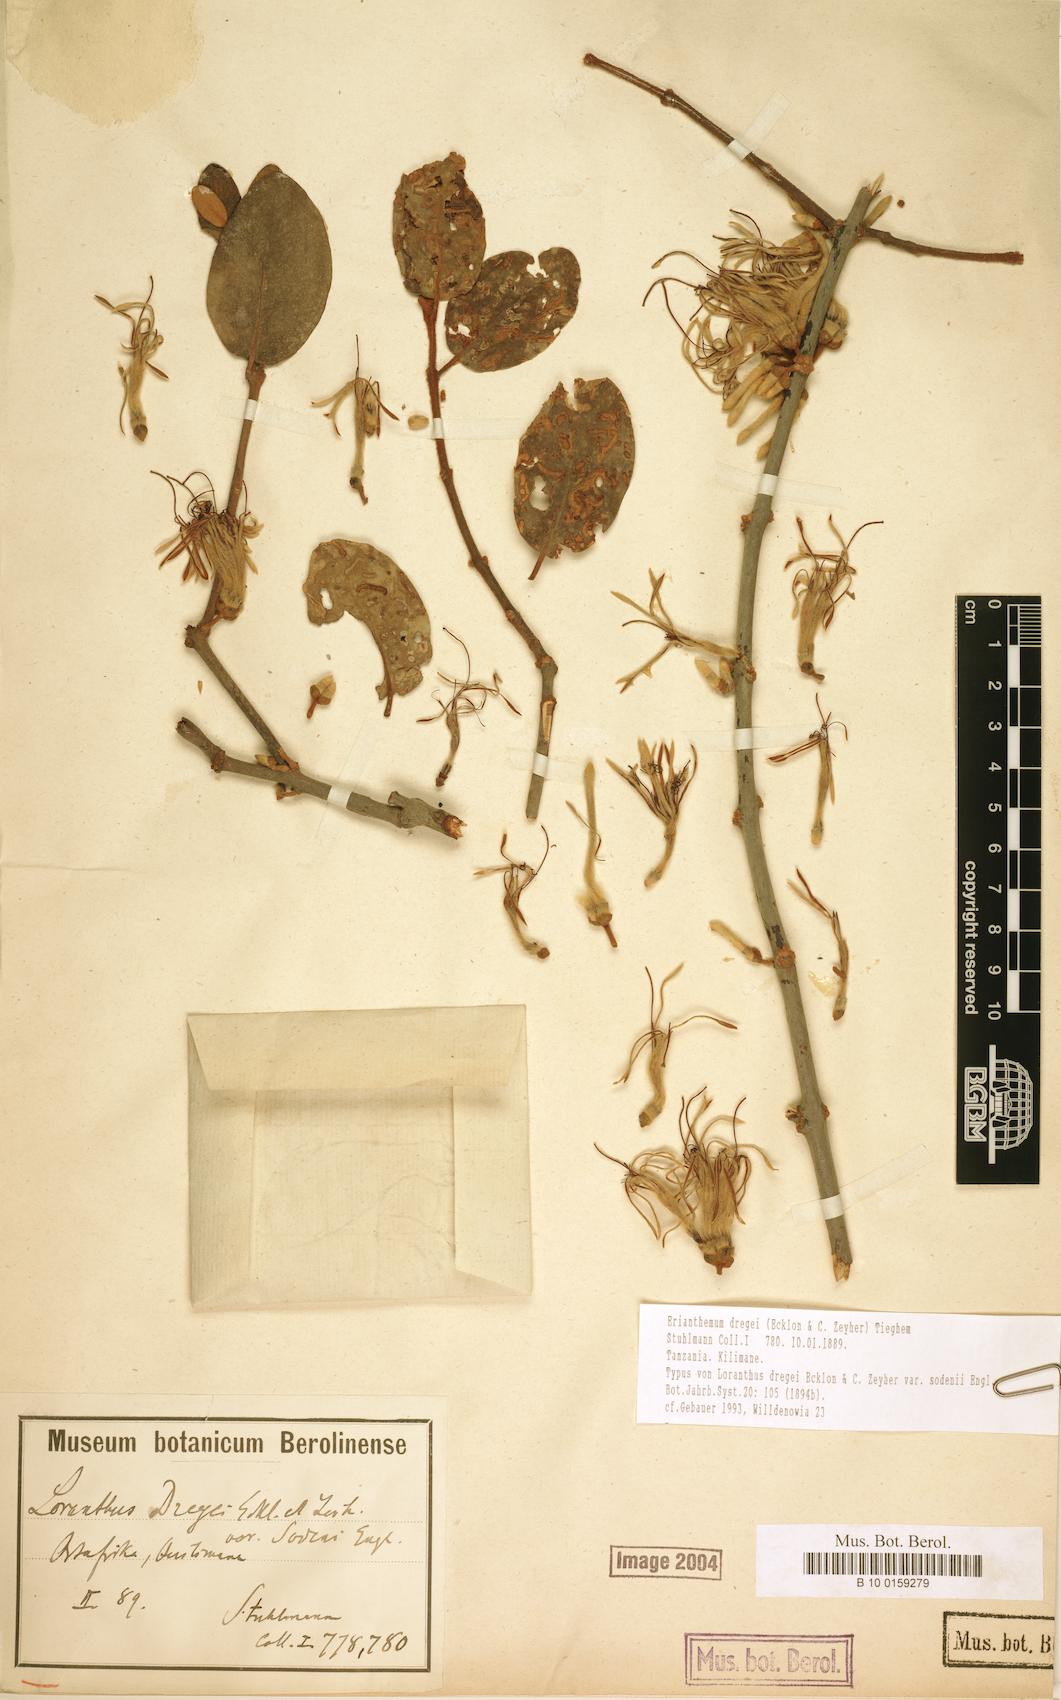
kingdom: Plantae
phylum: Tracheophyta
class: Magnoliopsida
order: Santalales
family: Loranthaceae
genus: Erianthemum
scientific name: Erianthemum dregei
